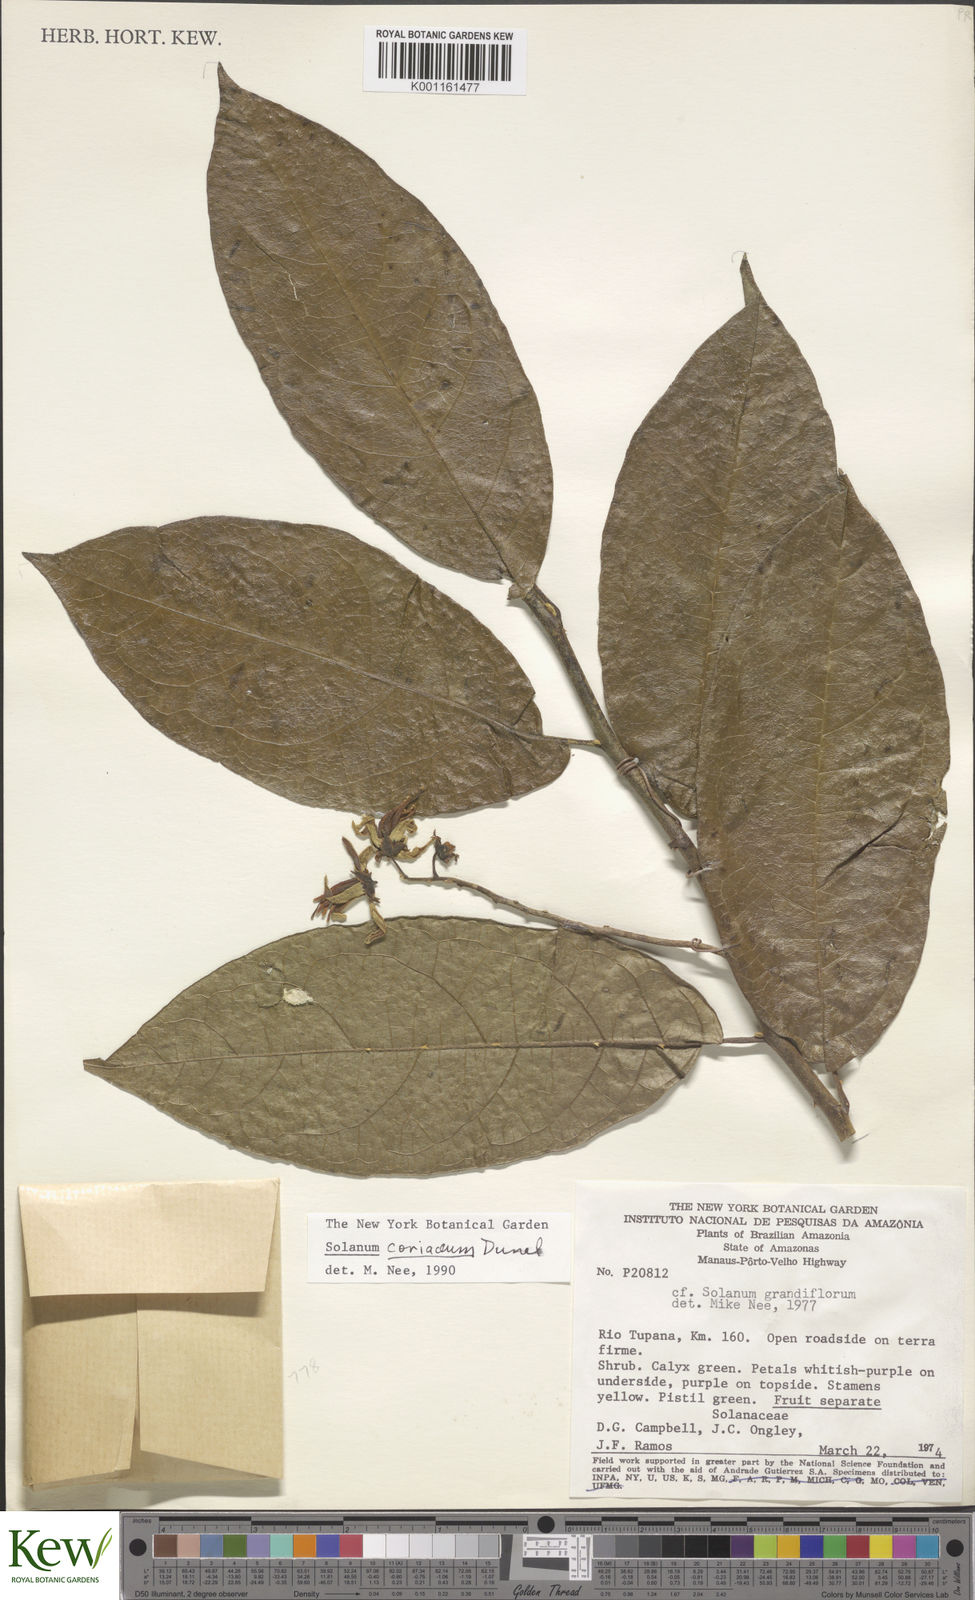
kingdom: Plantae
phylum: Tracheophyta
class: Magnoliopsida
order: Solanales
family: Solanaceae
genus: Solanum
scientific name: Solanum coriaceum
